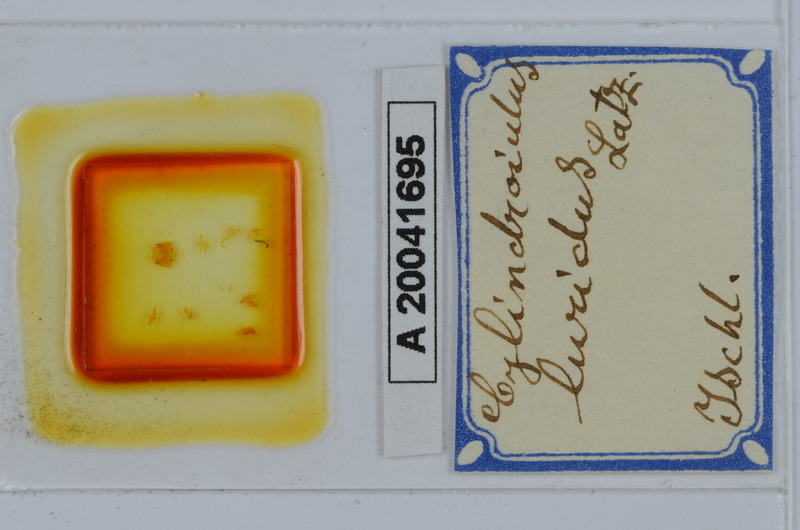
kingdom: Animalia
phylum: Arthropoda
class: Diplopoda
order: Julida
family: Julidae
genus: Cylindroiulus
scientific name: Cylindroiulus luridus
